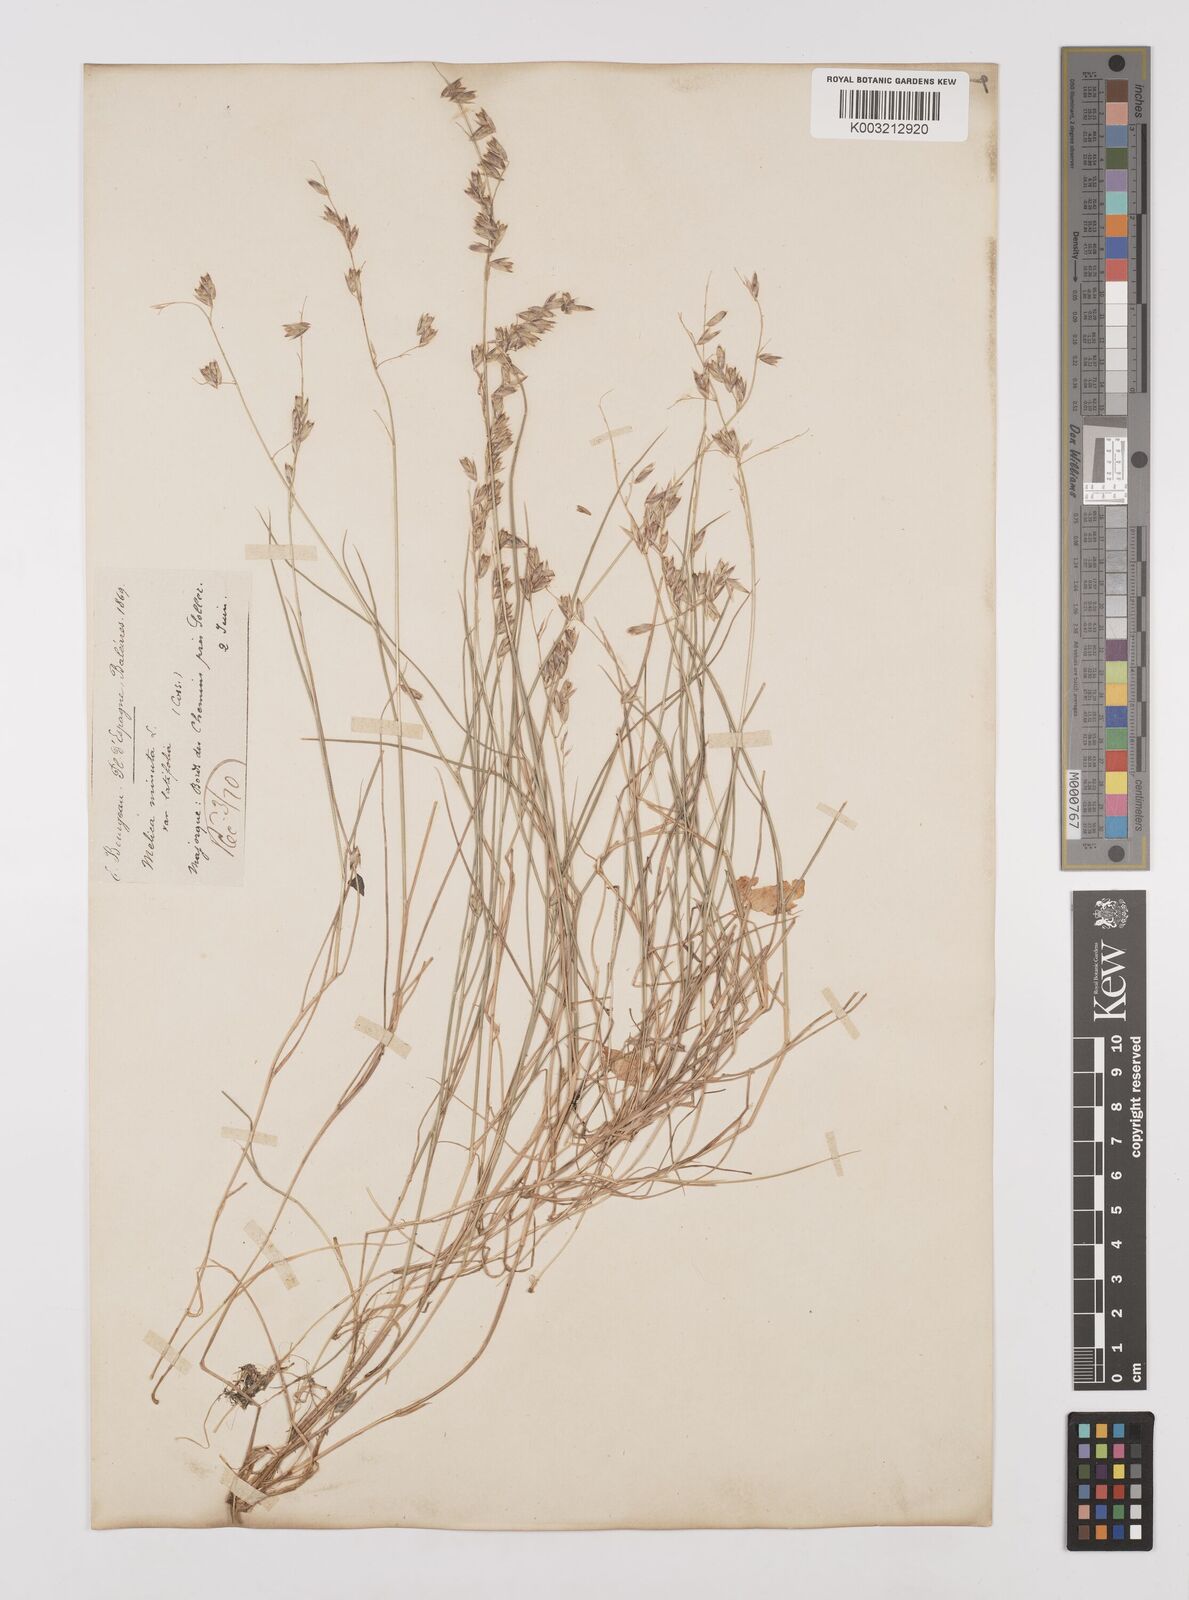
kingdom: Plantae
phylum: Tracheophyta
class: Liliopsida
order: Poales
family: Poaceae
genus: Melica
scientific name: Melica minuta
